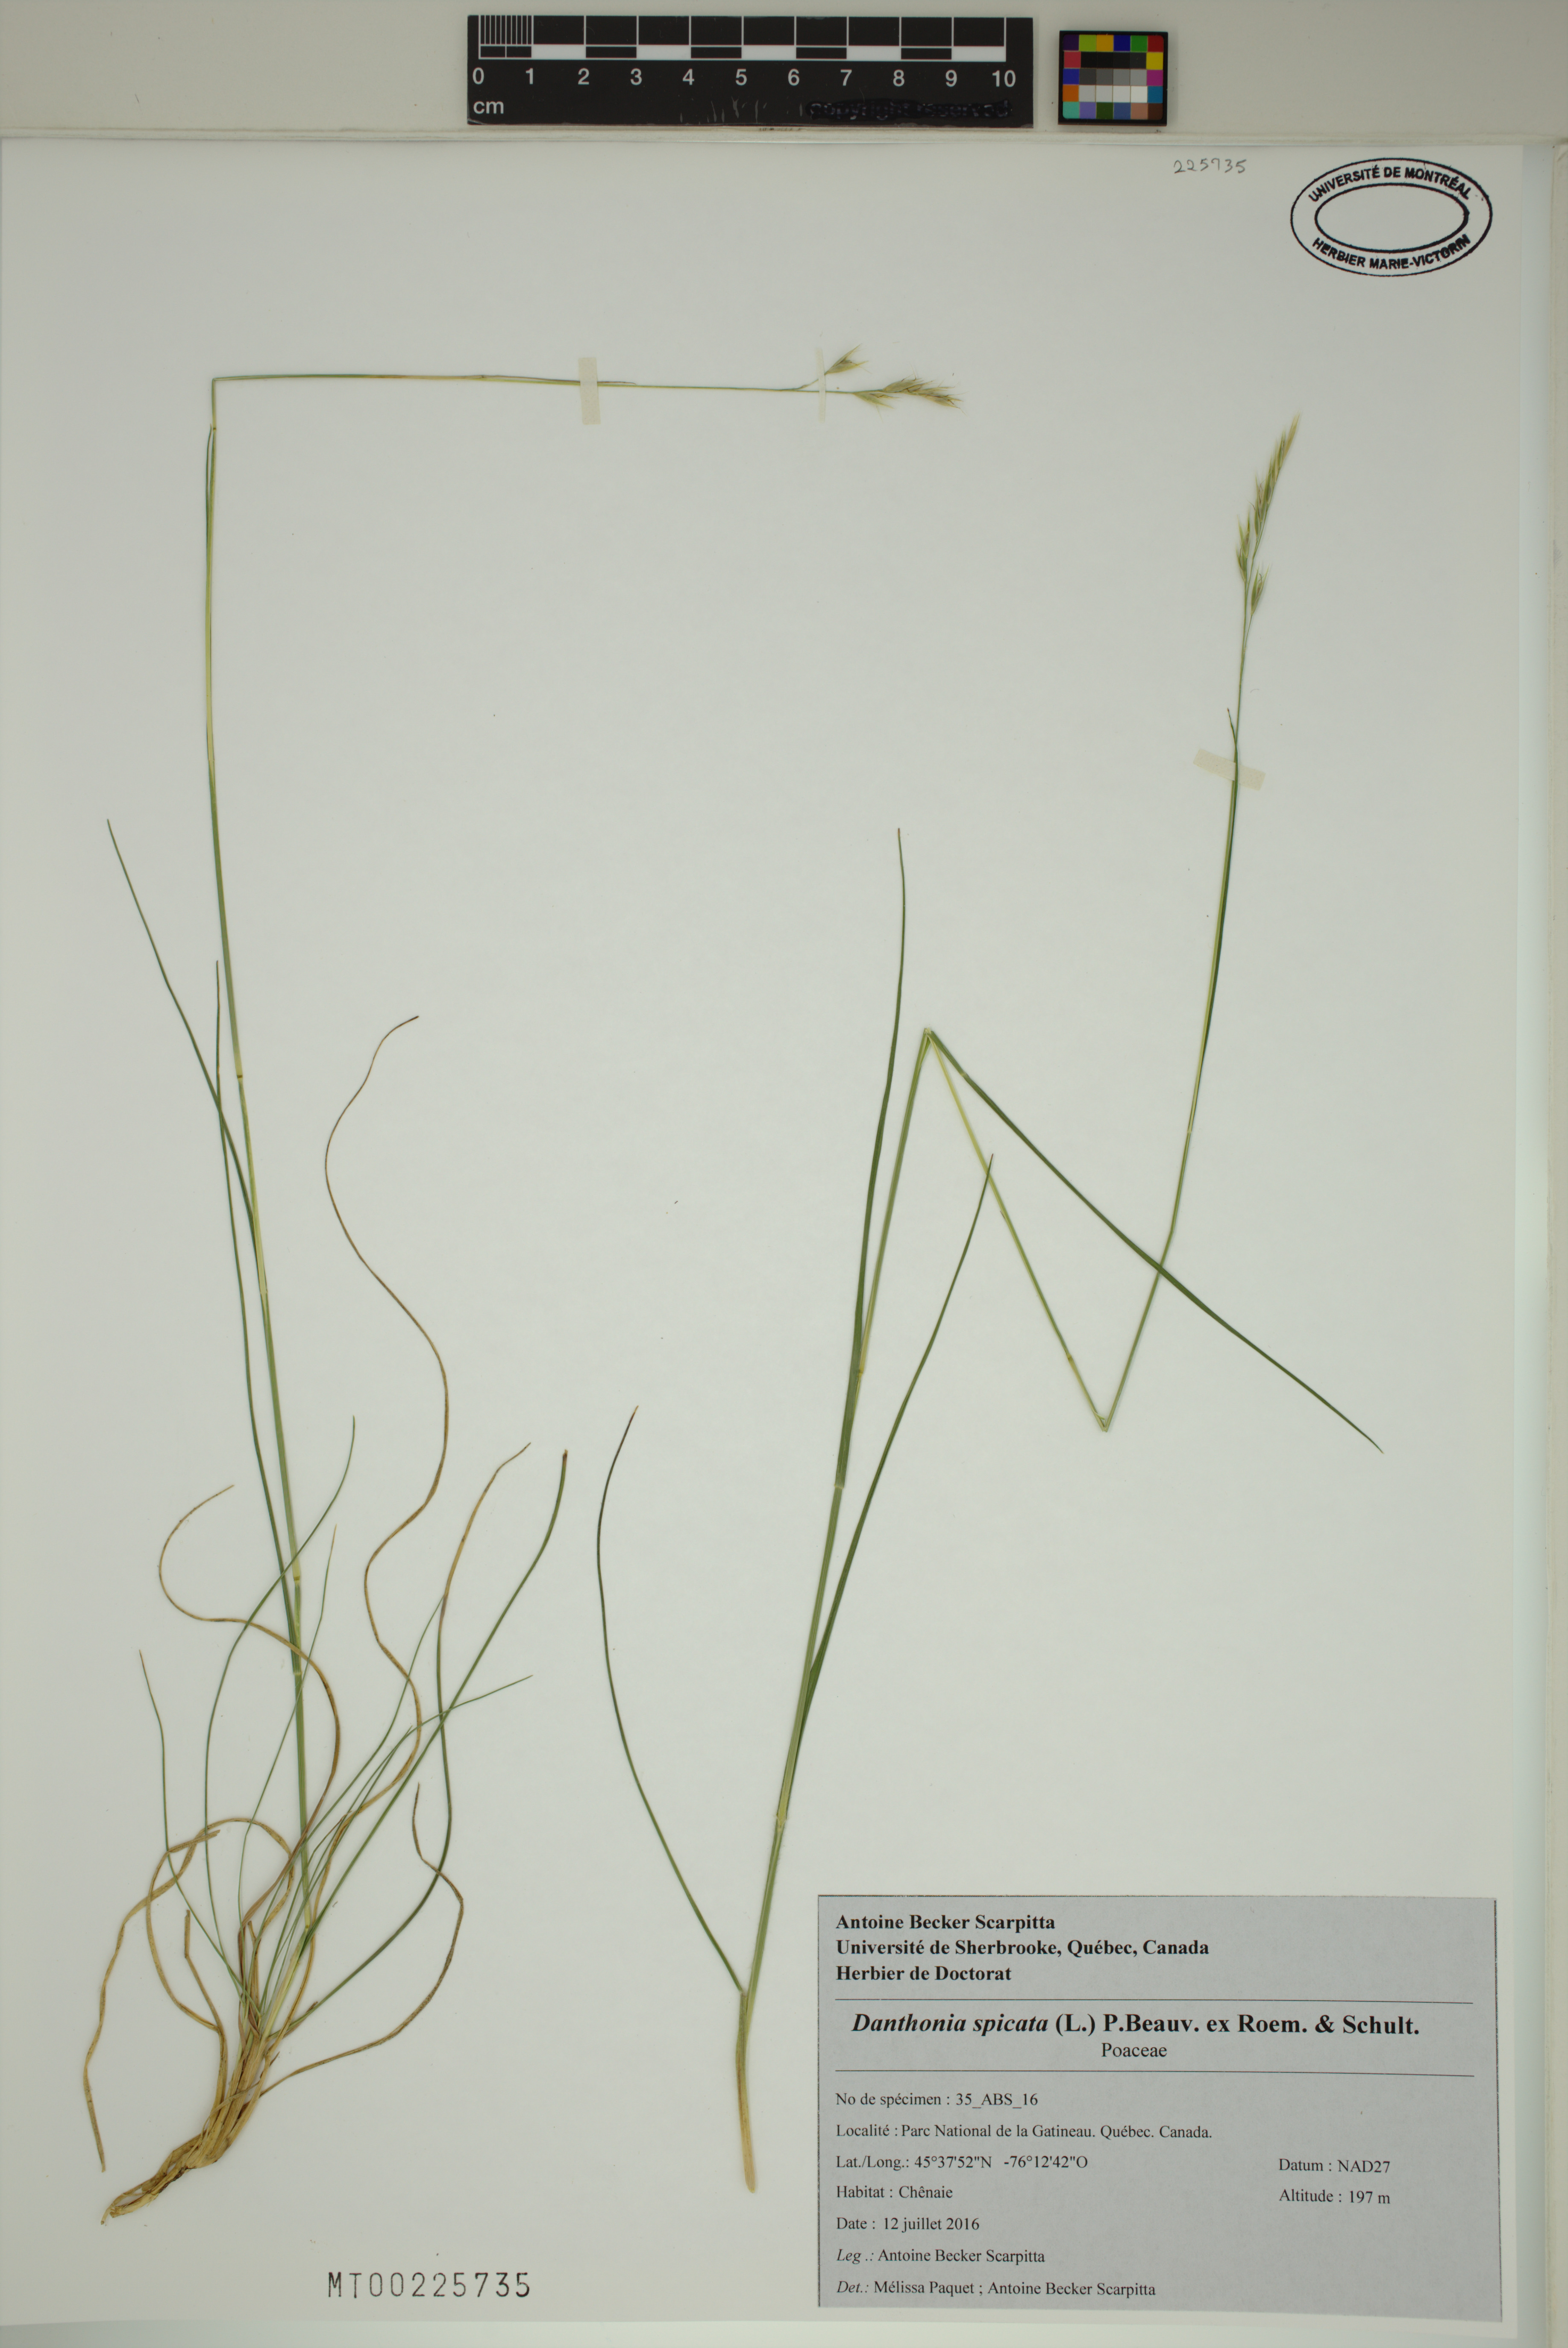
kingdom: Plantae
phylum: Tracheophyta
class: Liliopsida
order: Poales
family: Poaceae
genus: Danthonia
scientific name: Danthonia spicata
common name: Common wild oatgrass
